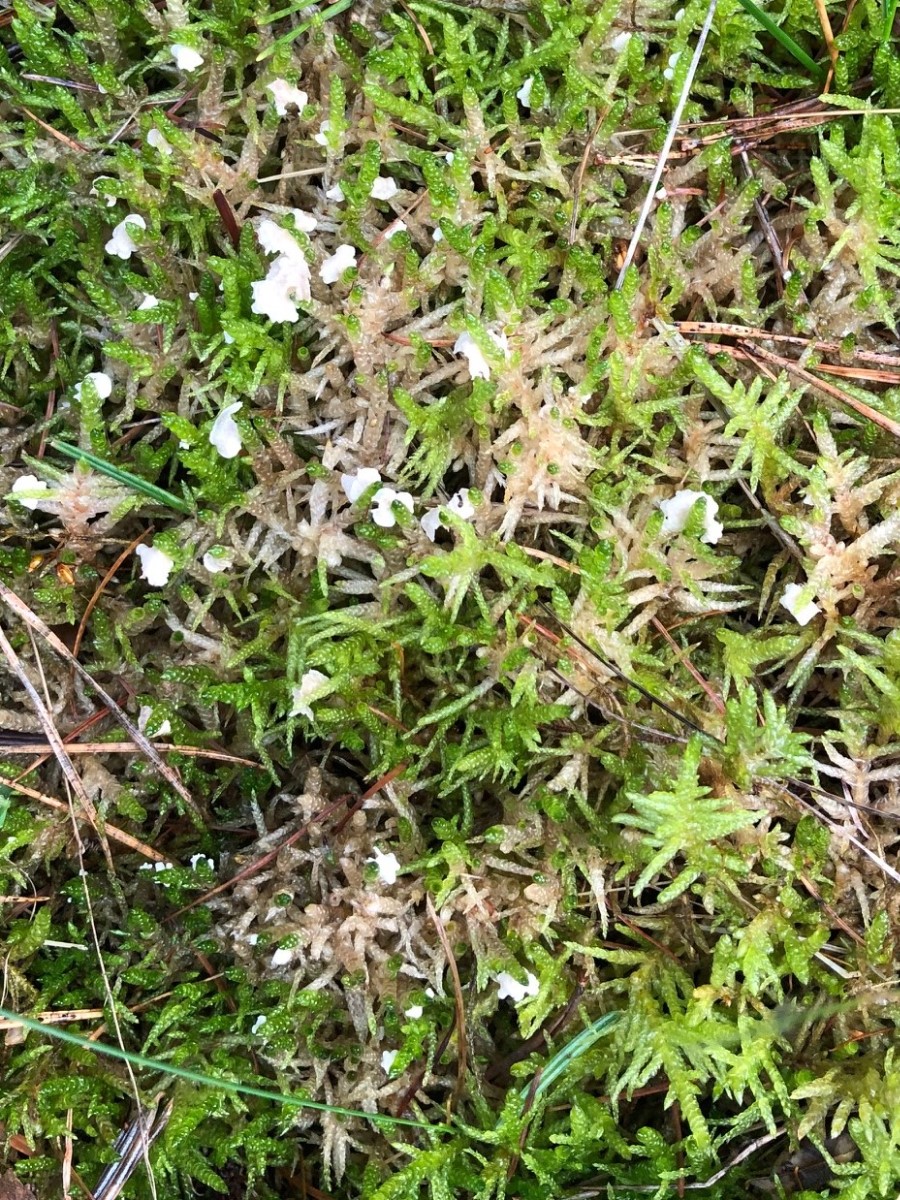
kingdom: Fungi
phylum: Basidiomycota
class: Agaricomycetes
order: Agaricales
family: Hygrophoraceae
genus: Arrhenia
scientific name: Arrhenia retiruga
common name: lille fontænehat
